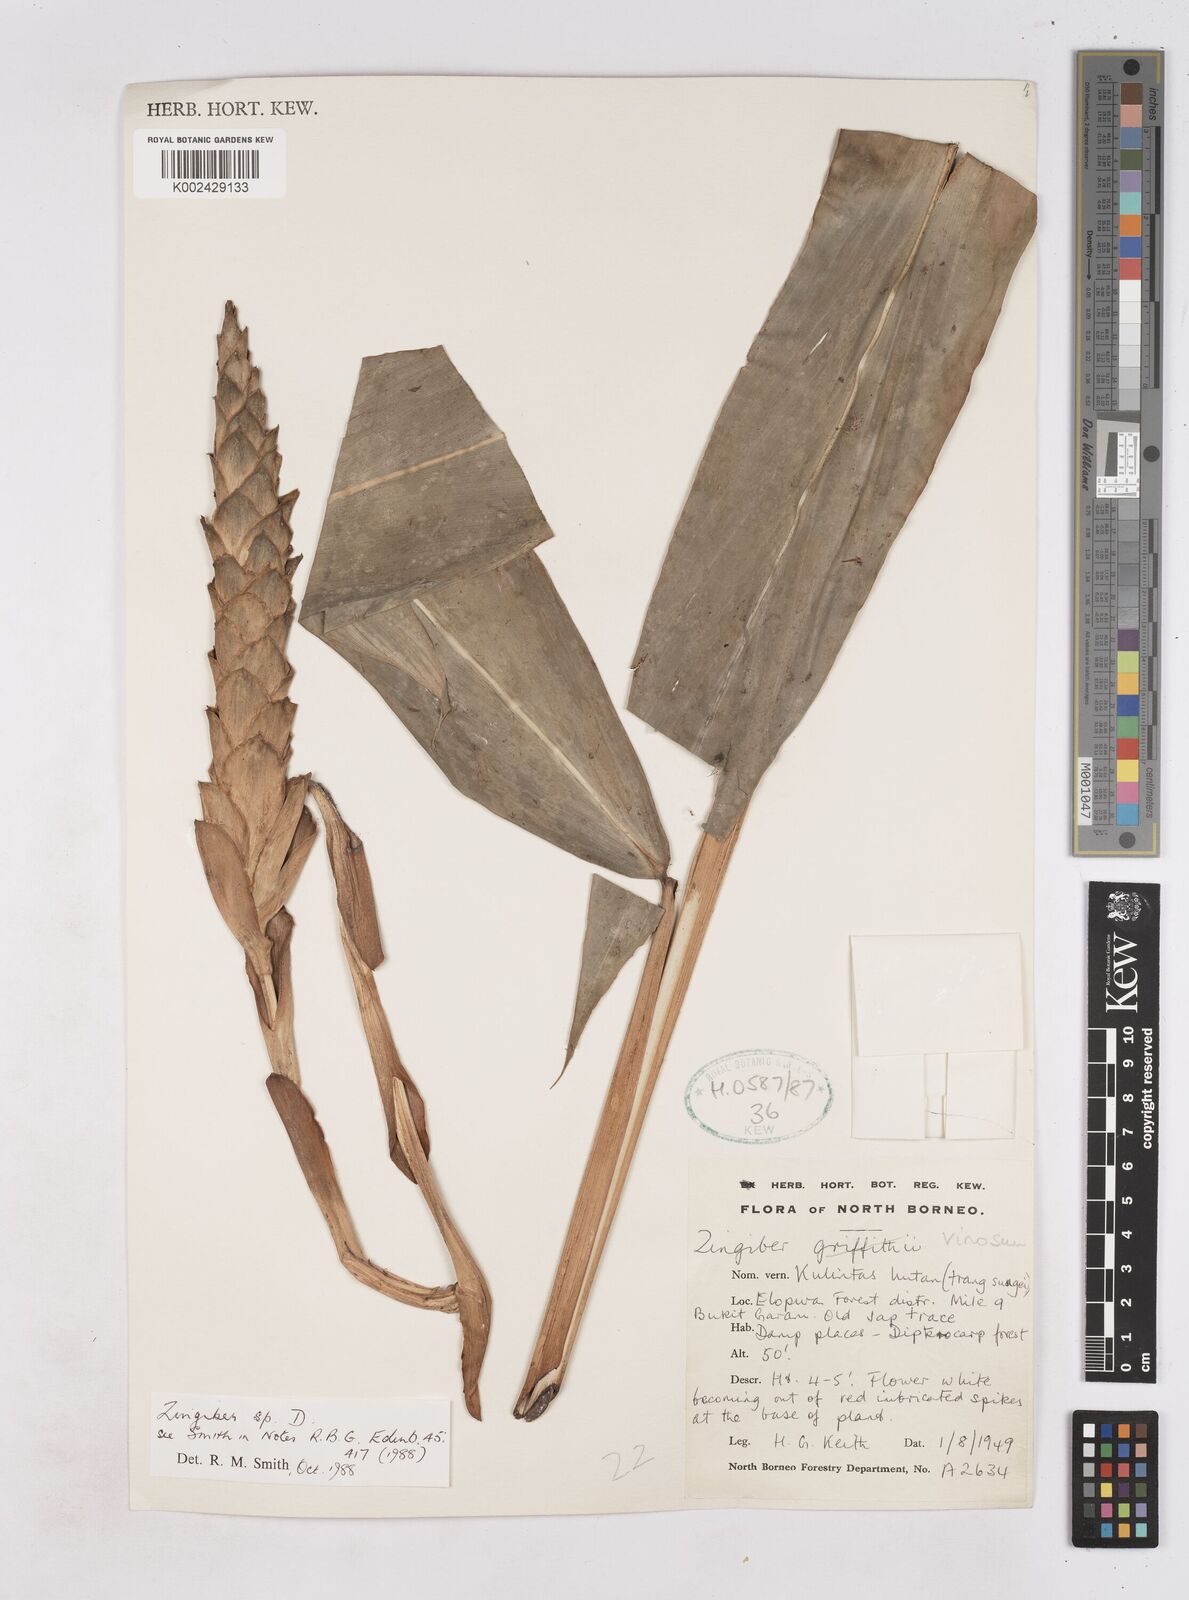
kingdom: Plantae
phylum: Tracheophyta
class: Liliopsida
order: Zingiberales
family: Zingiberaceae
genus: Zingiber
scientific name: Zingiber vinosum
